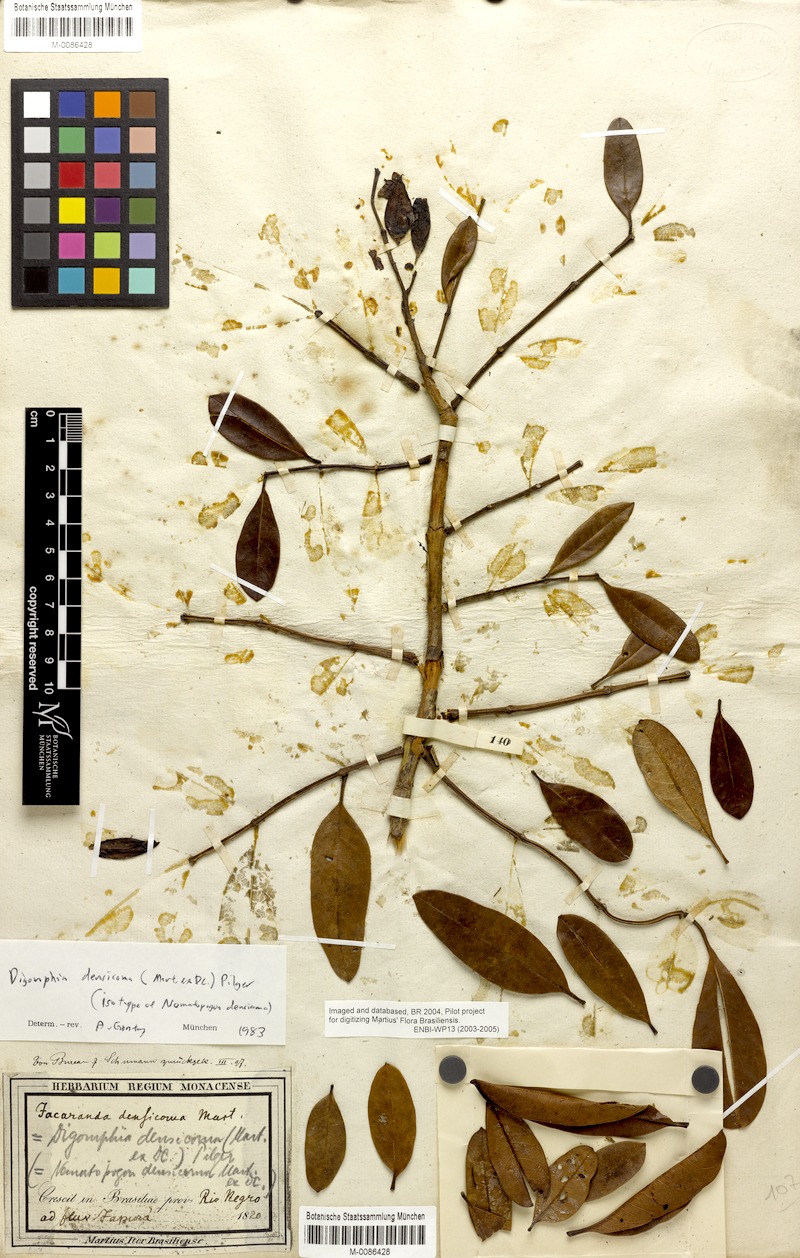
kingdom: Plantae
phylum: Tracheophyta
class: Magnoliopsida
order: Lamiales
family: Bignoniaceae
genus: Digomphia
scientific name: Digomphia densicoma
